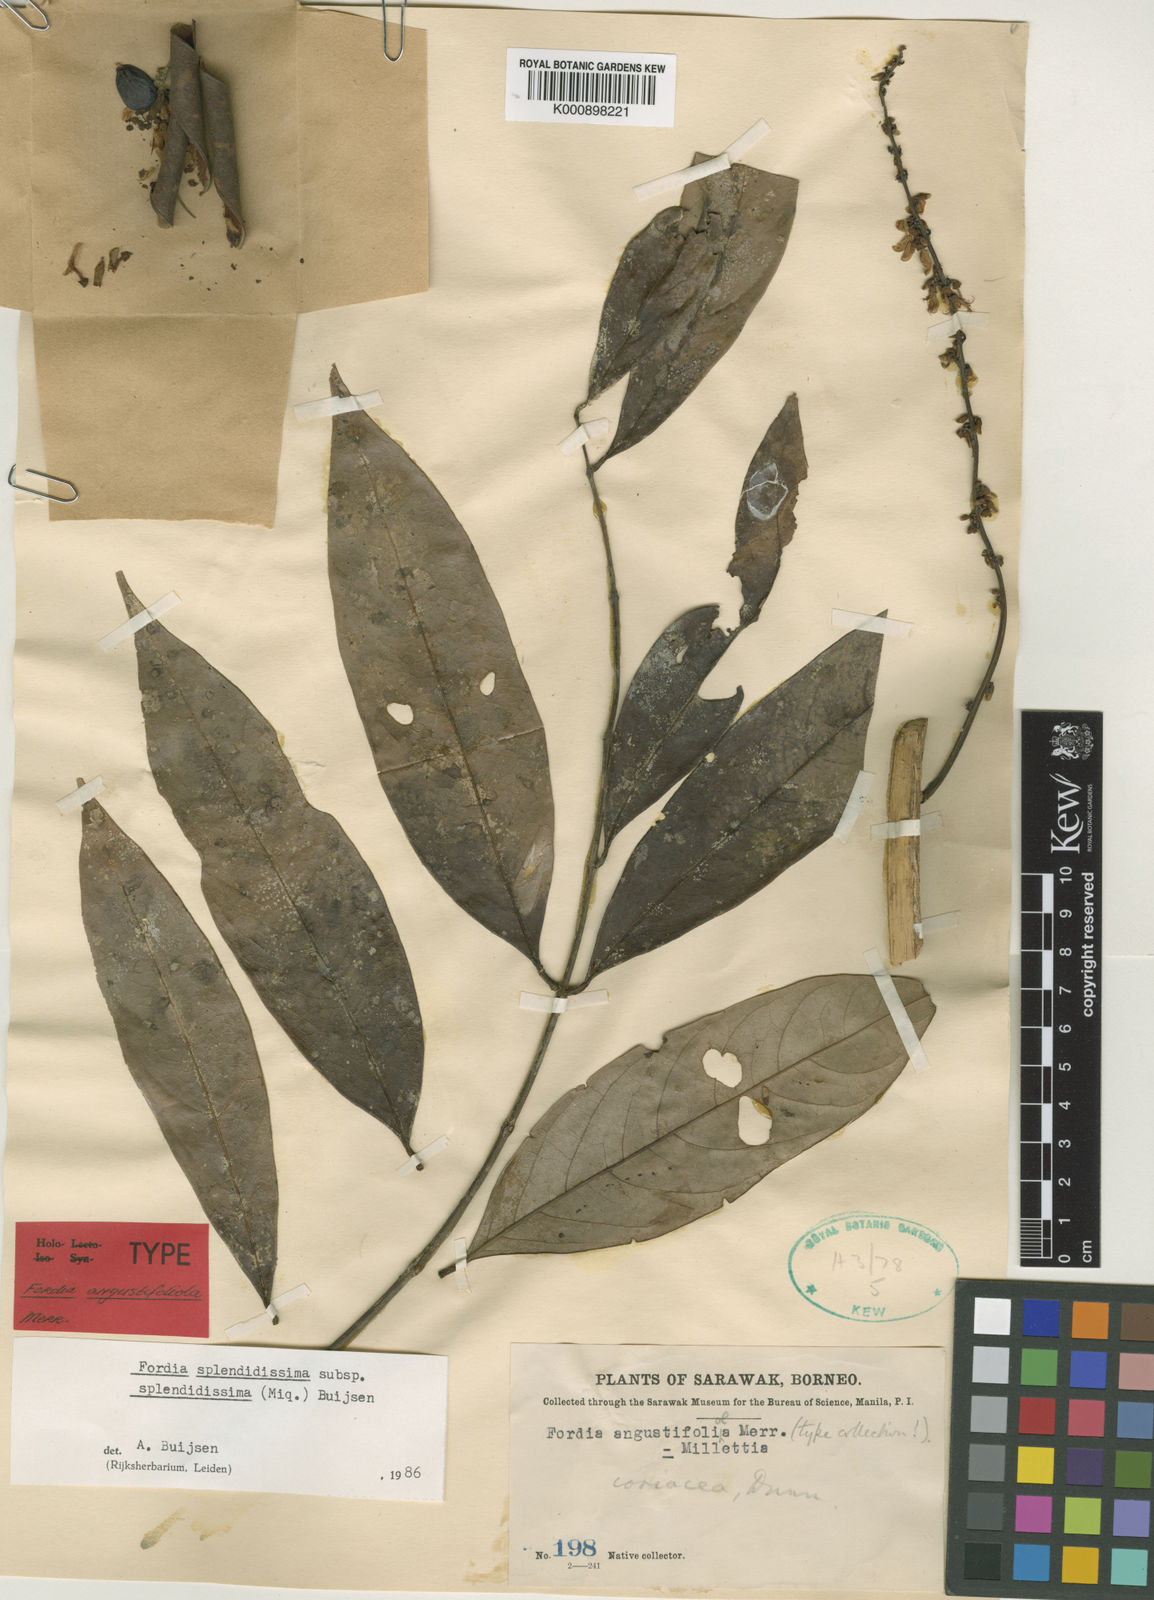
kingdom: Plantae
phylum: Tracheophyta
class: Magnoliopsida
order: Fabales
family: Fabaceae
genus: Fordia
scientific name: Fordia splendidissima
